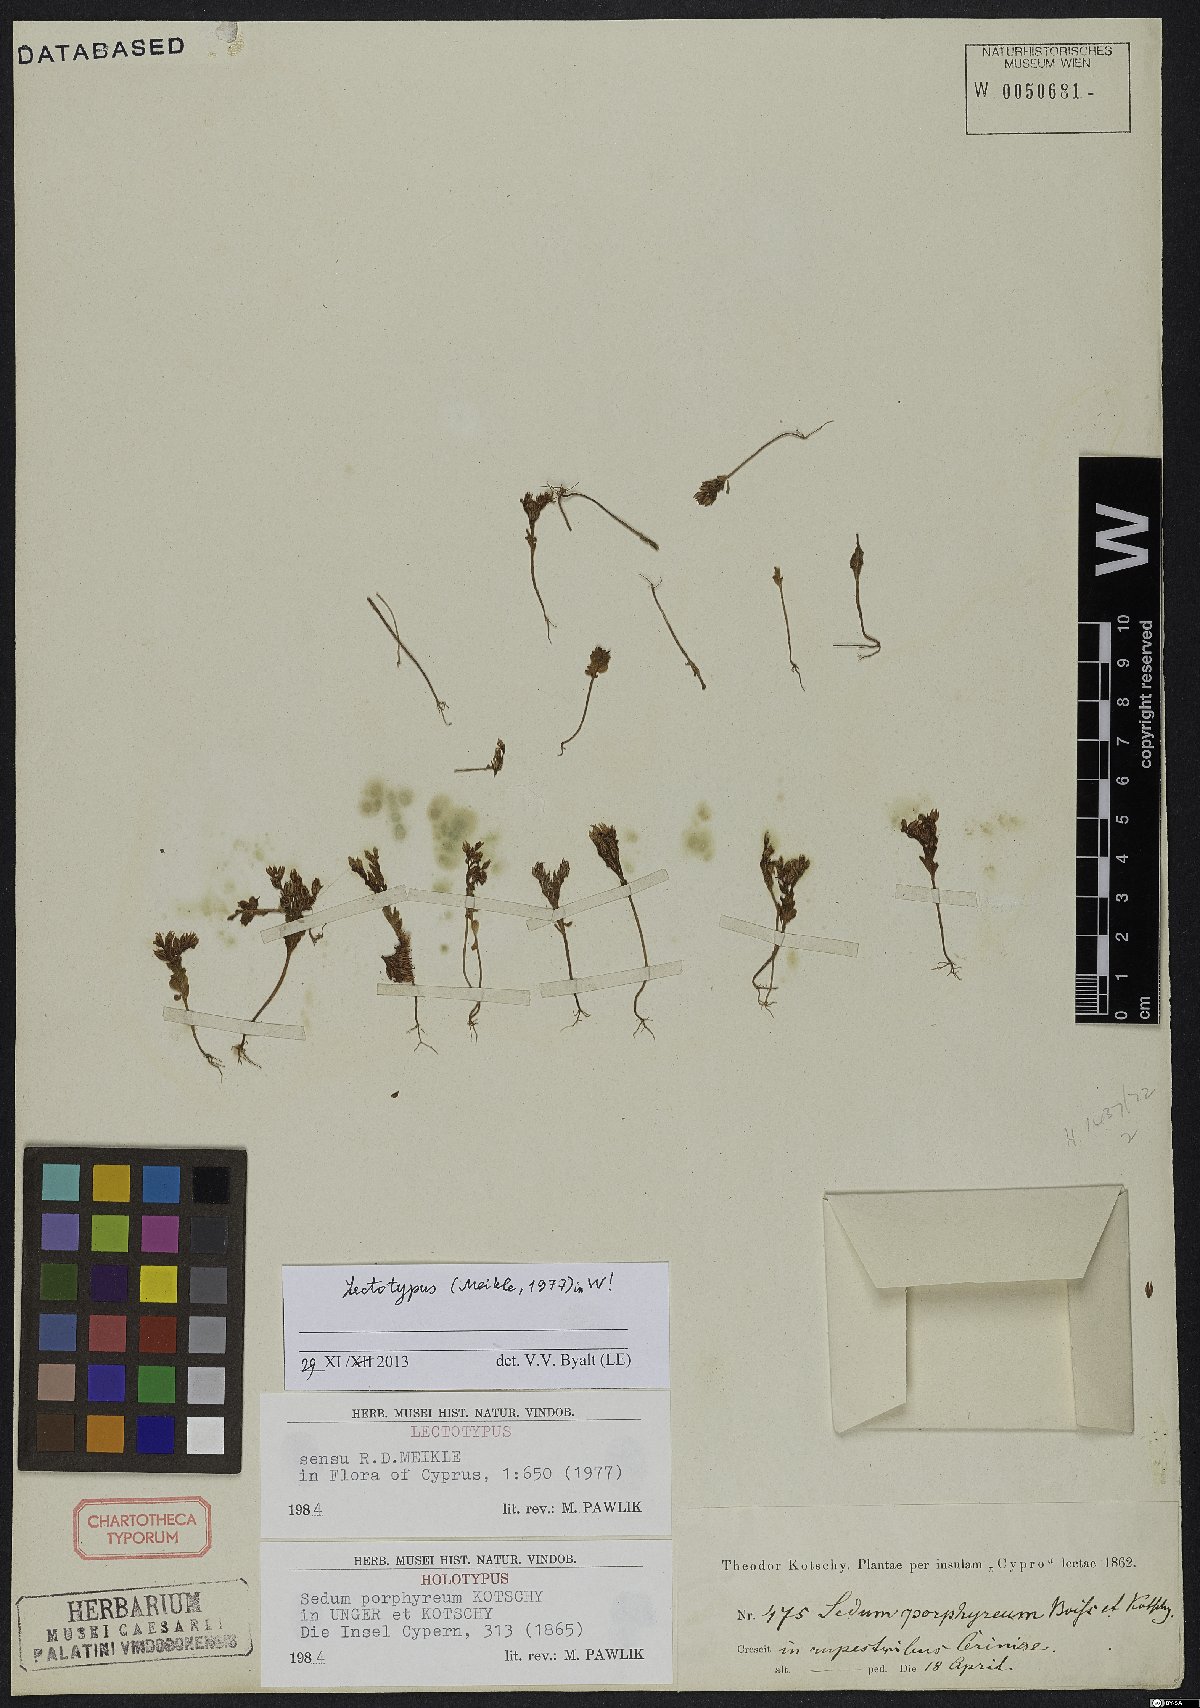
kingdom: Plantae
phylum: Tracheophyta
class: Magnoliopsida
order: Saxifragales
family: Crassulaceae
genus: Sedum
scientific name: Sedum eriocarpum
